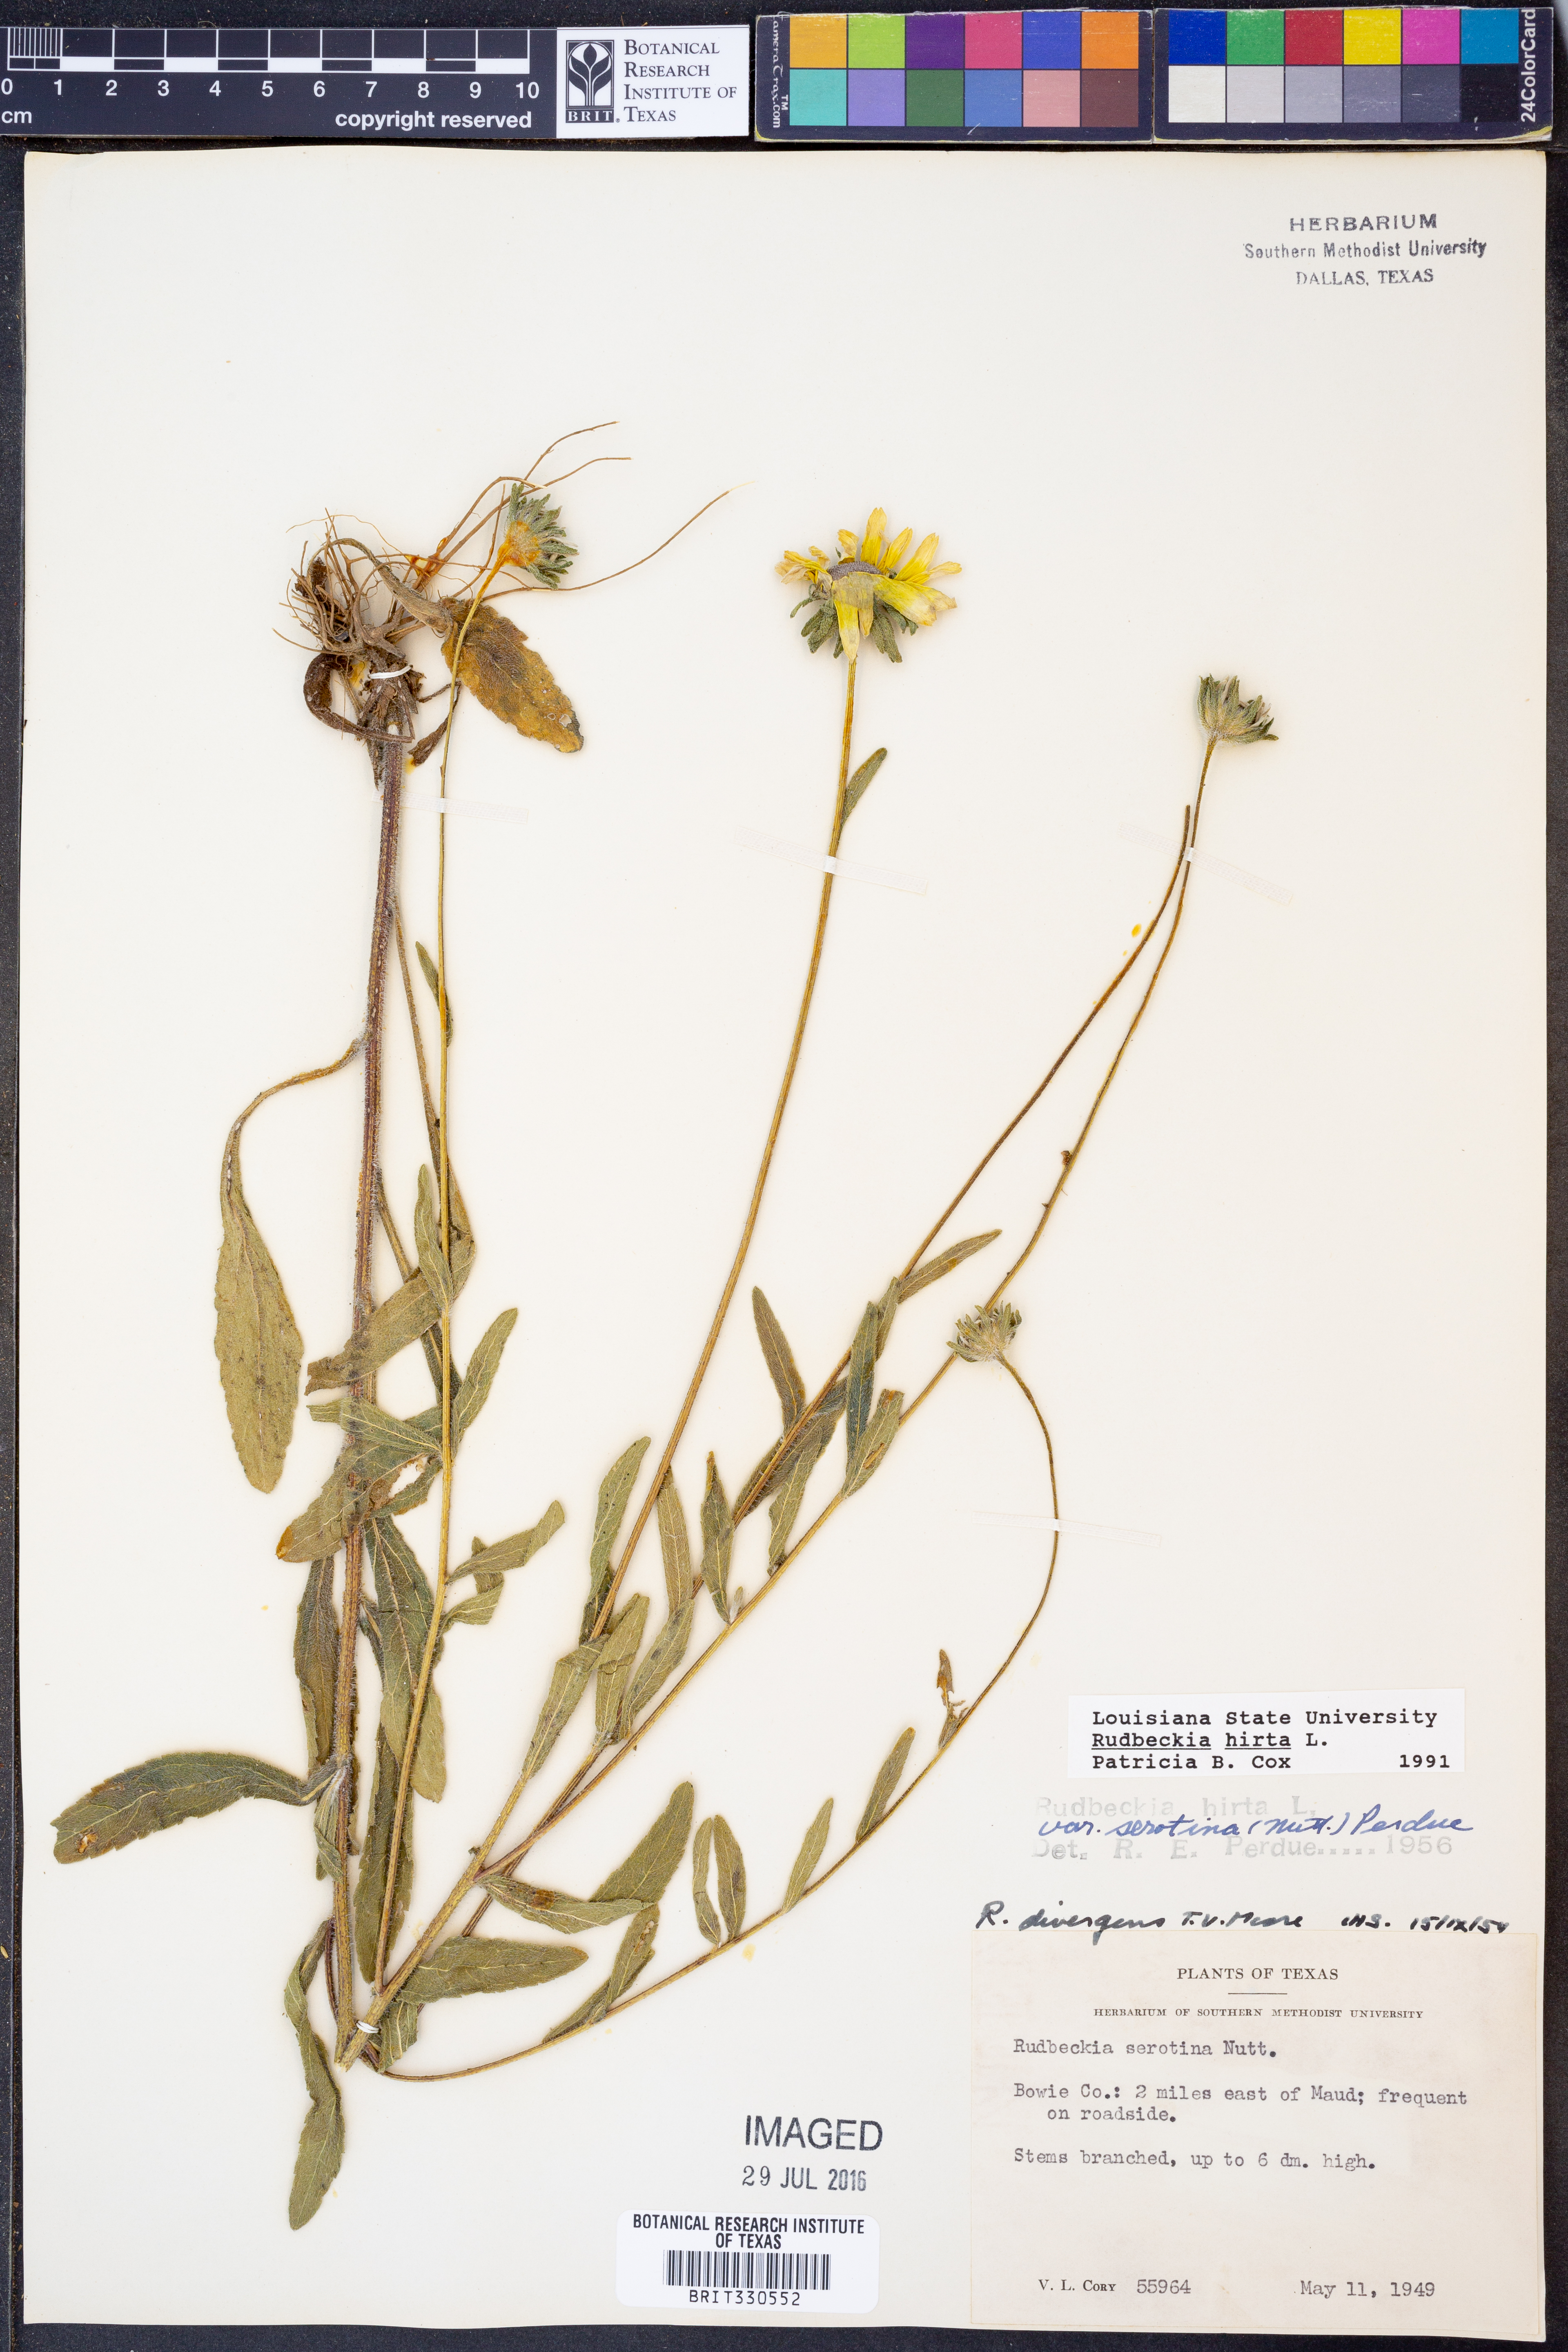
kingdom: Plantae
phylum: Tracheophyta
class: Magnoliopsida
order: Asterales
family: Asteraceae
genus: Rudbeckia
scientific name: Rudbeckia hirta
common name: Black-eyed-susan
